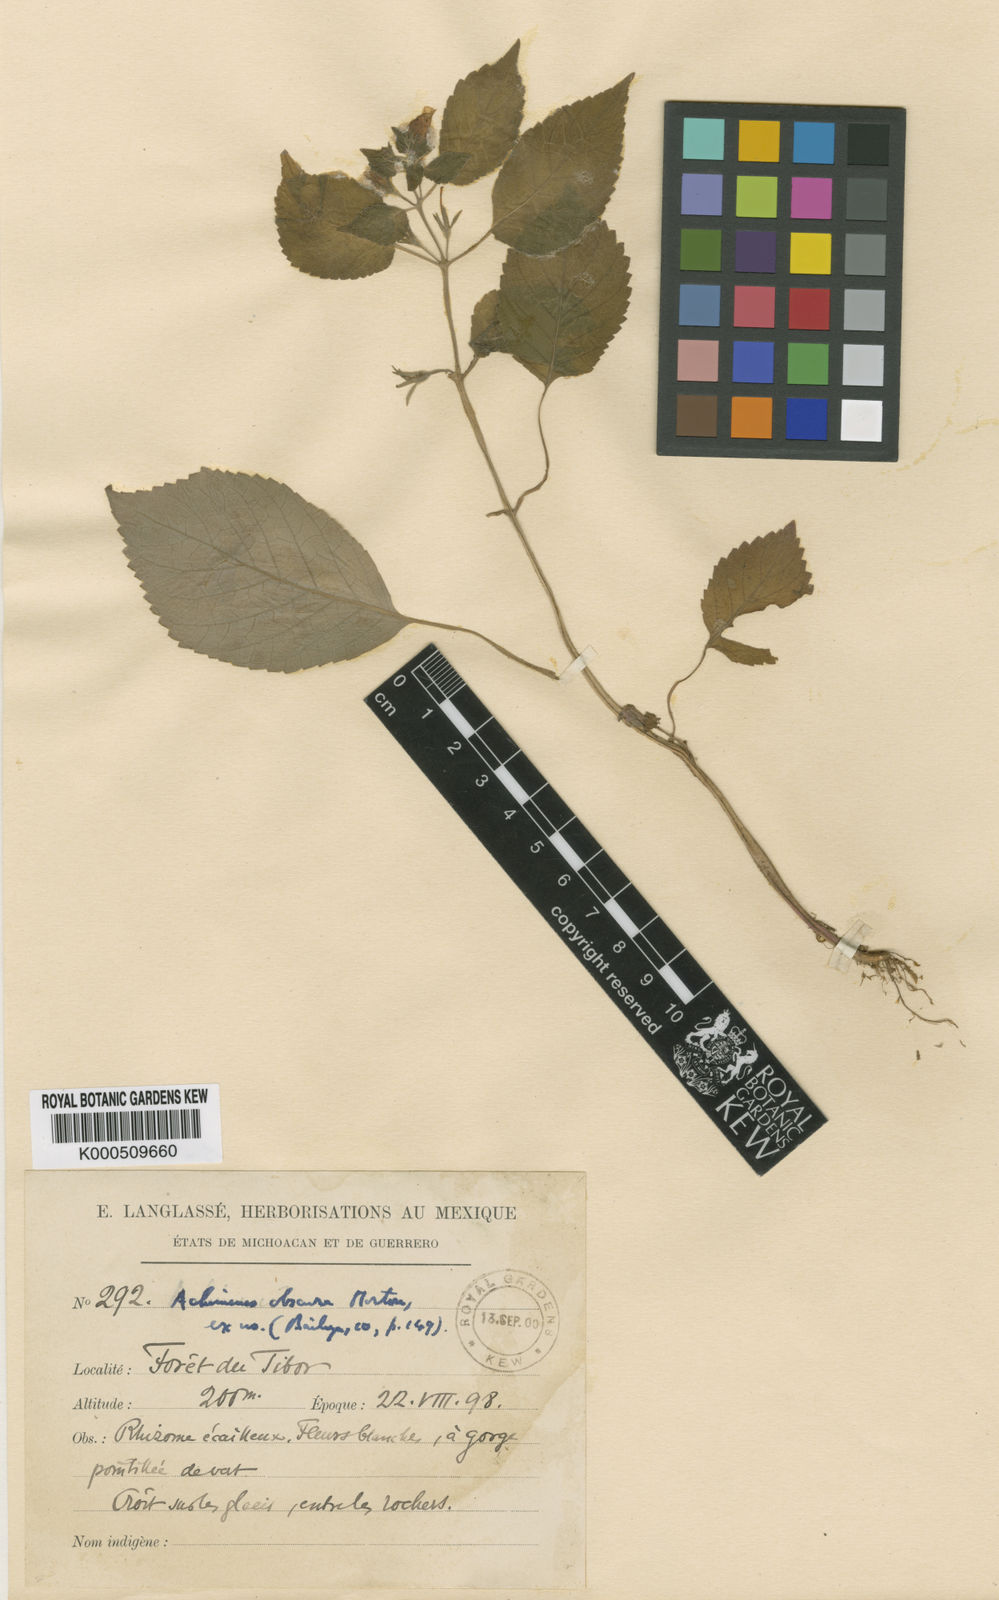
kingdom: Plantae
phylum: Tracheophyta
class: Magnoliopsida
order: Lamiales
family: Gesneriaceae
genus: Achimenes
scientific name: Achimenes obscura
